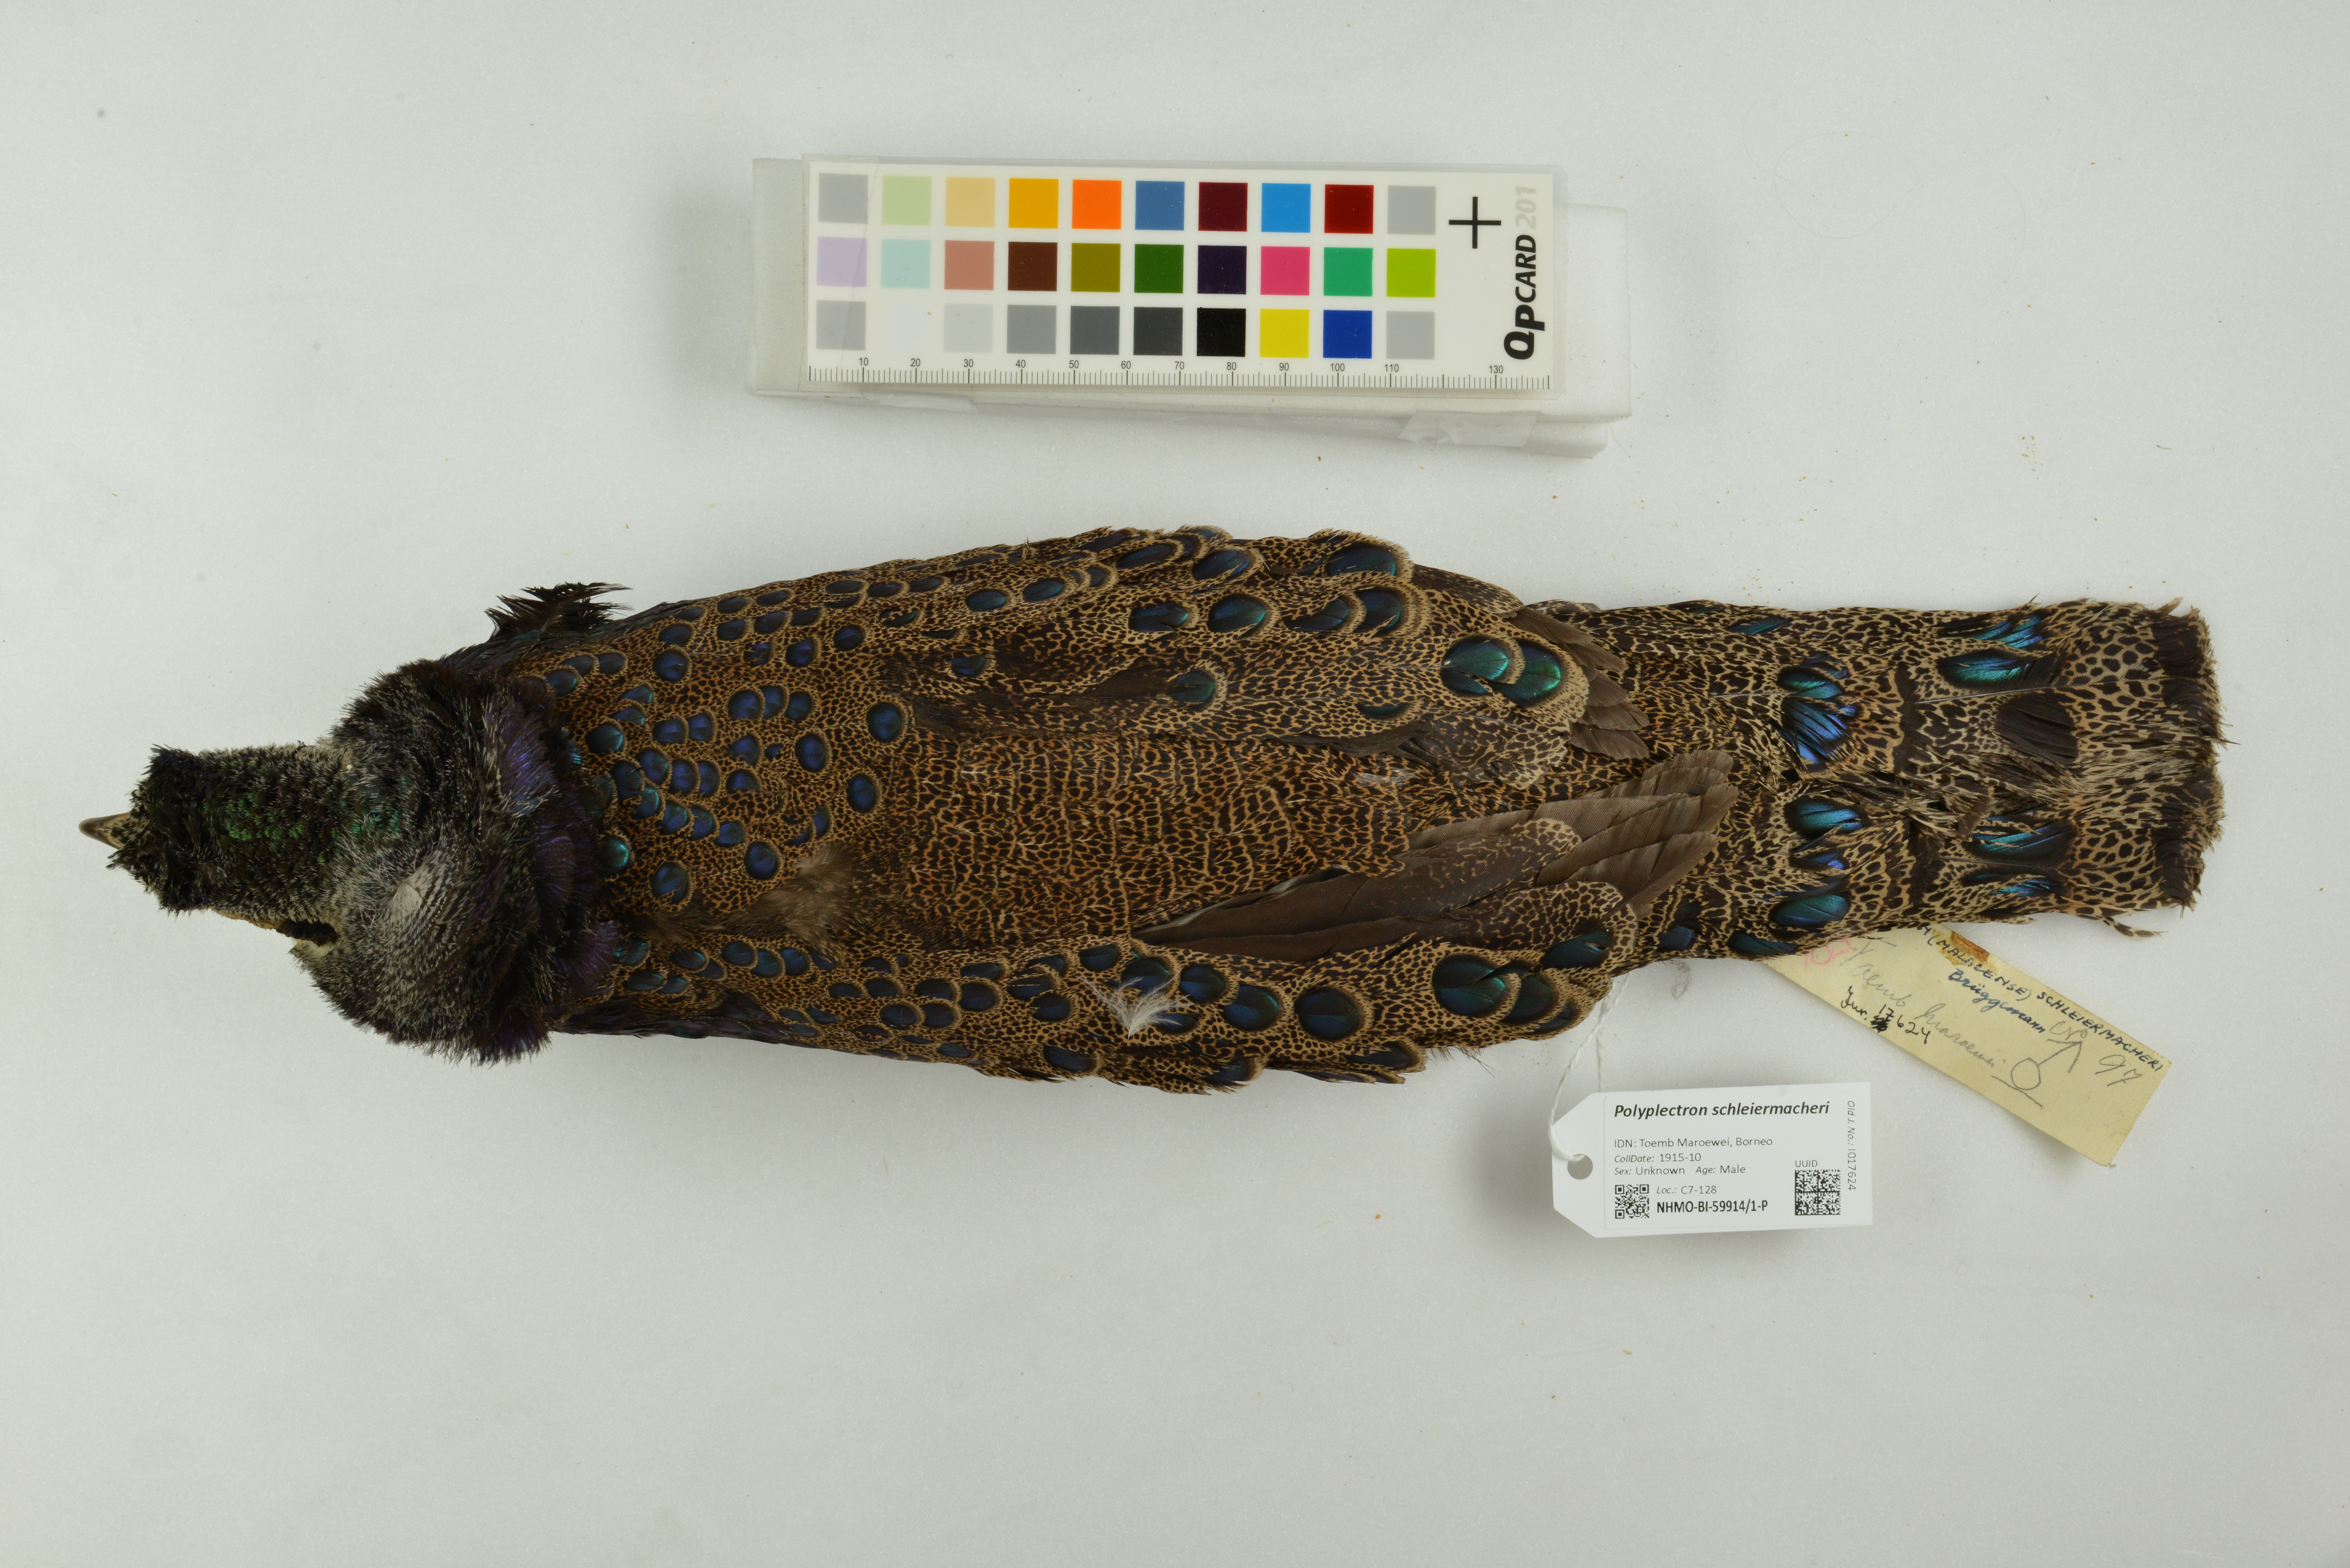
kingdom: Animalia
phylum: Chordata
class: Aves
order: Galliformes
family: Phasianidae
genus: Polyplectron
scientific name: Polyplectron schleiermacheri
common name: Bornean peacock-pheasant
